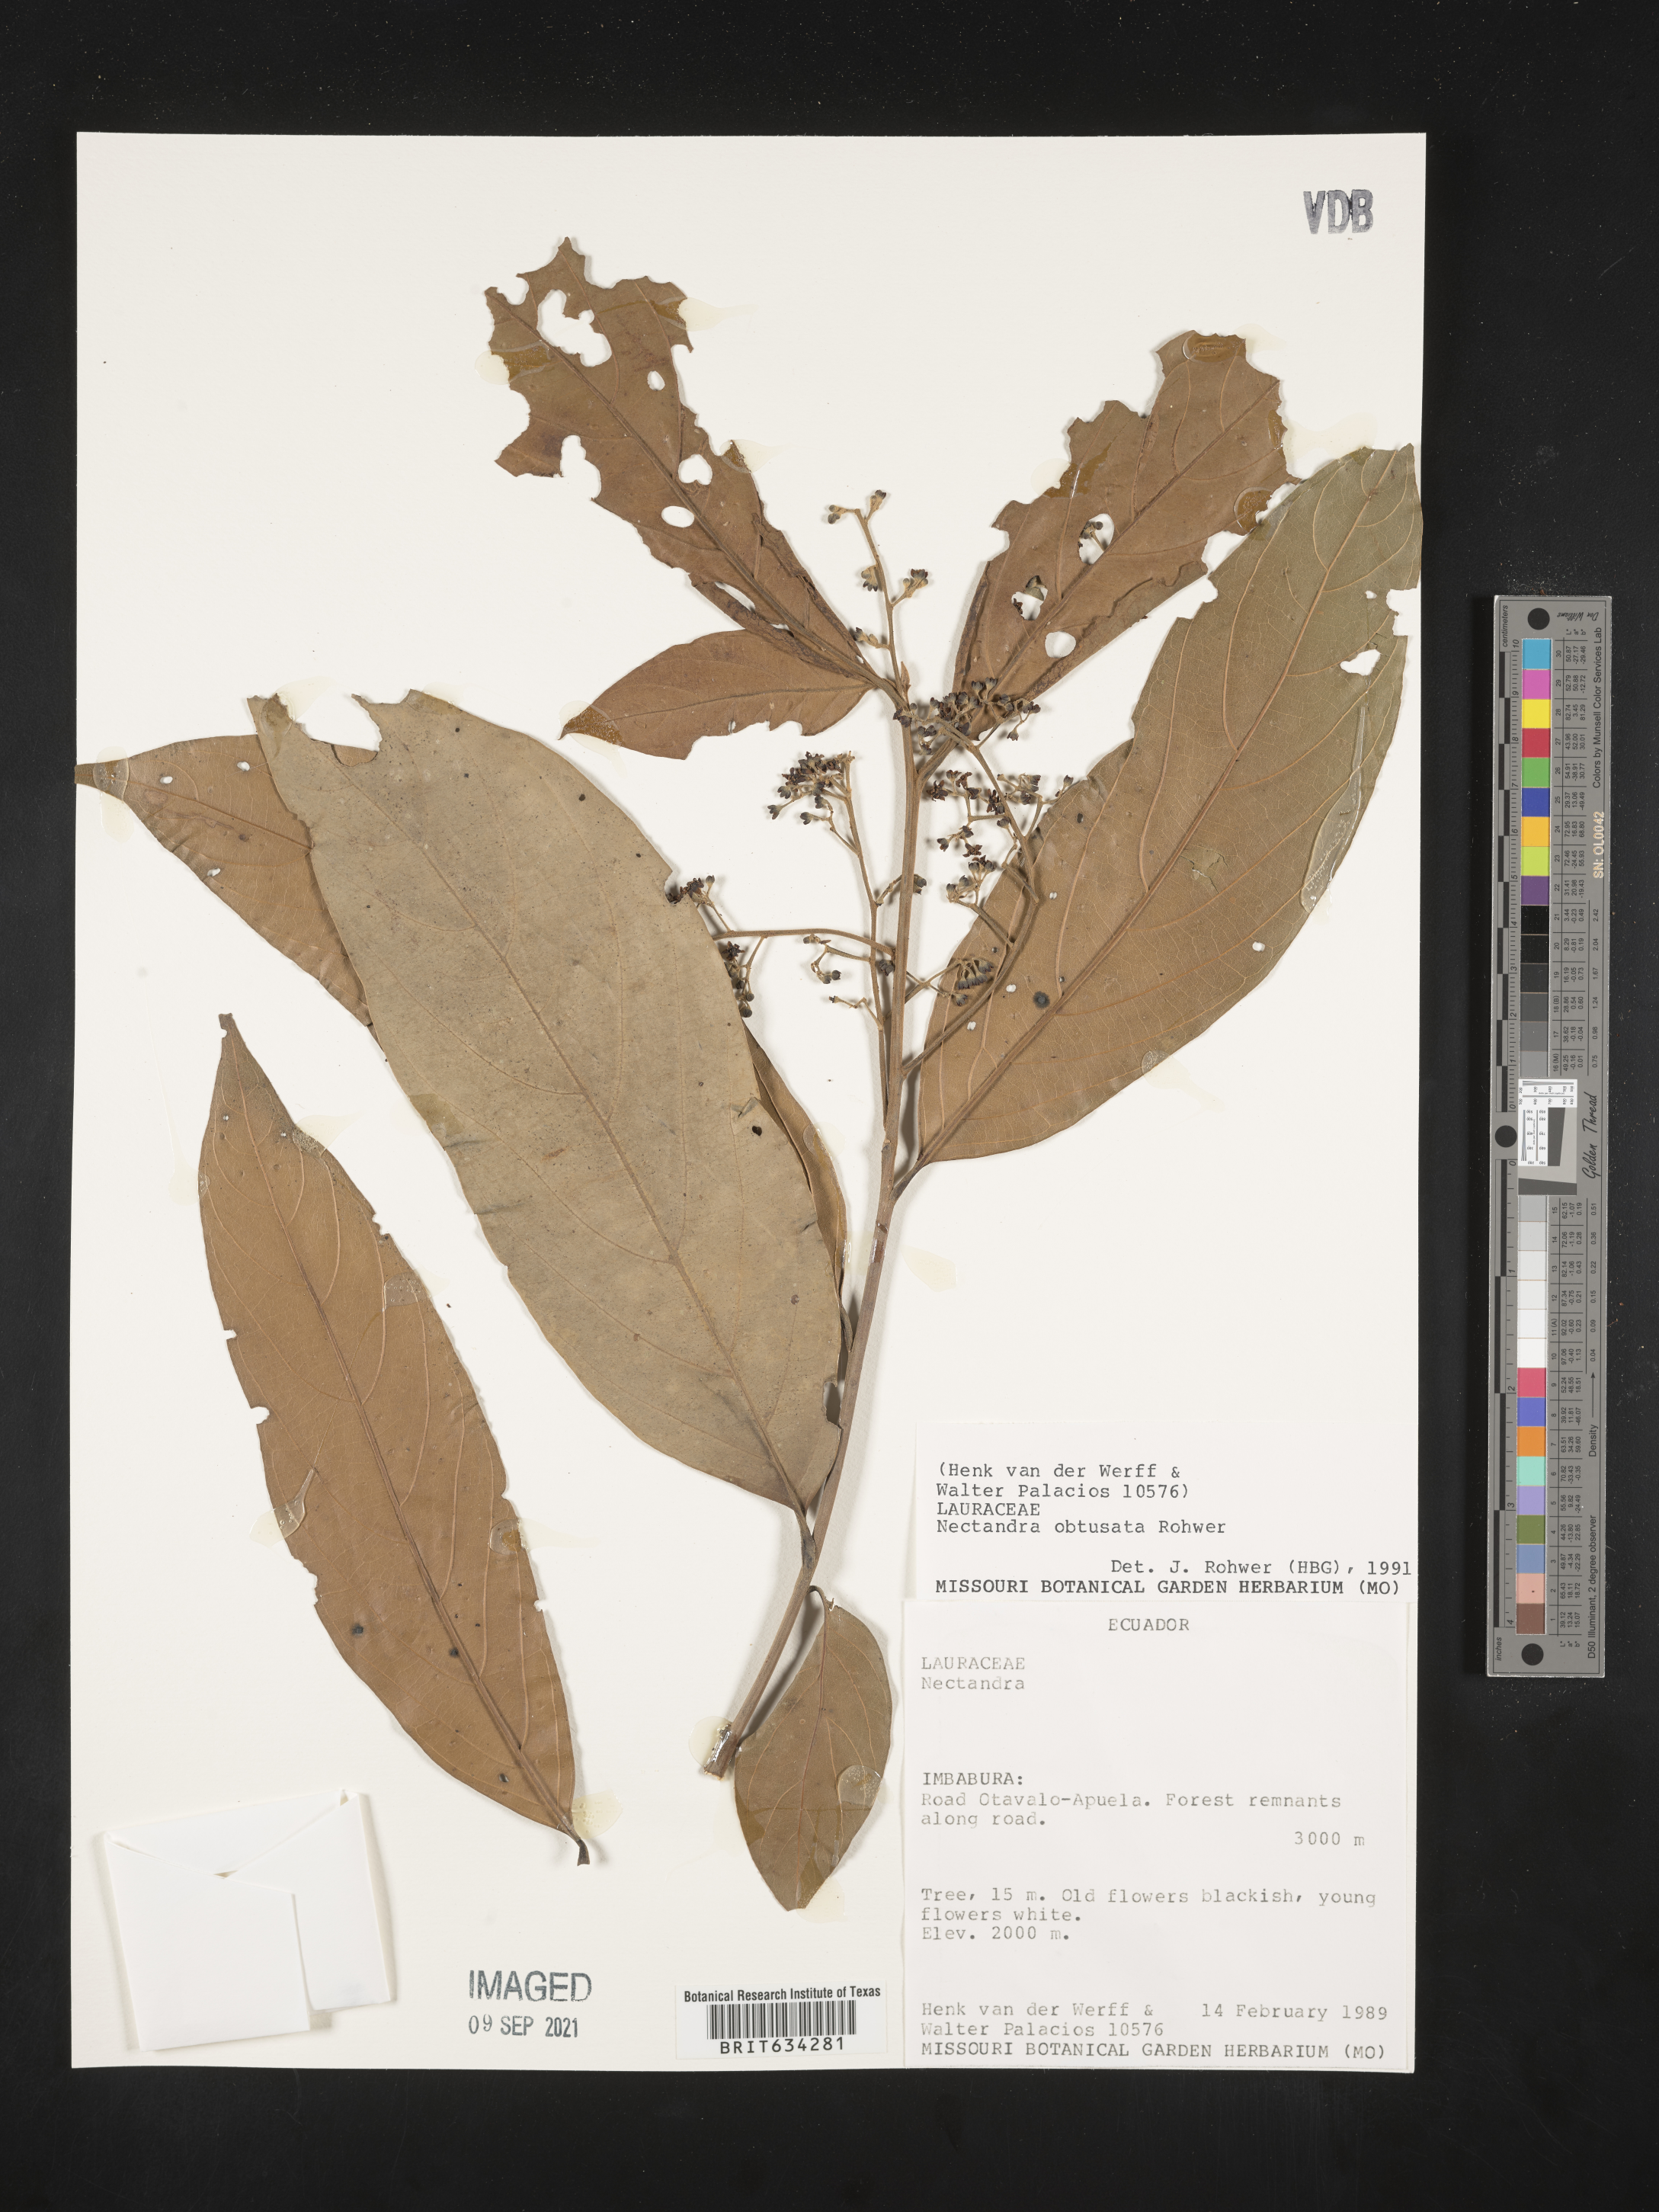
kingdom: Plantae
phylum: Tracheophyta
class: Magnoliopsida
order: Laurales
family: Lauraceae
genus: Nectandra
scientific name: Nectandra
